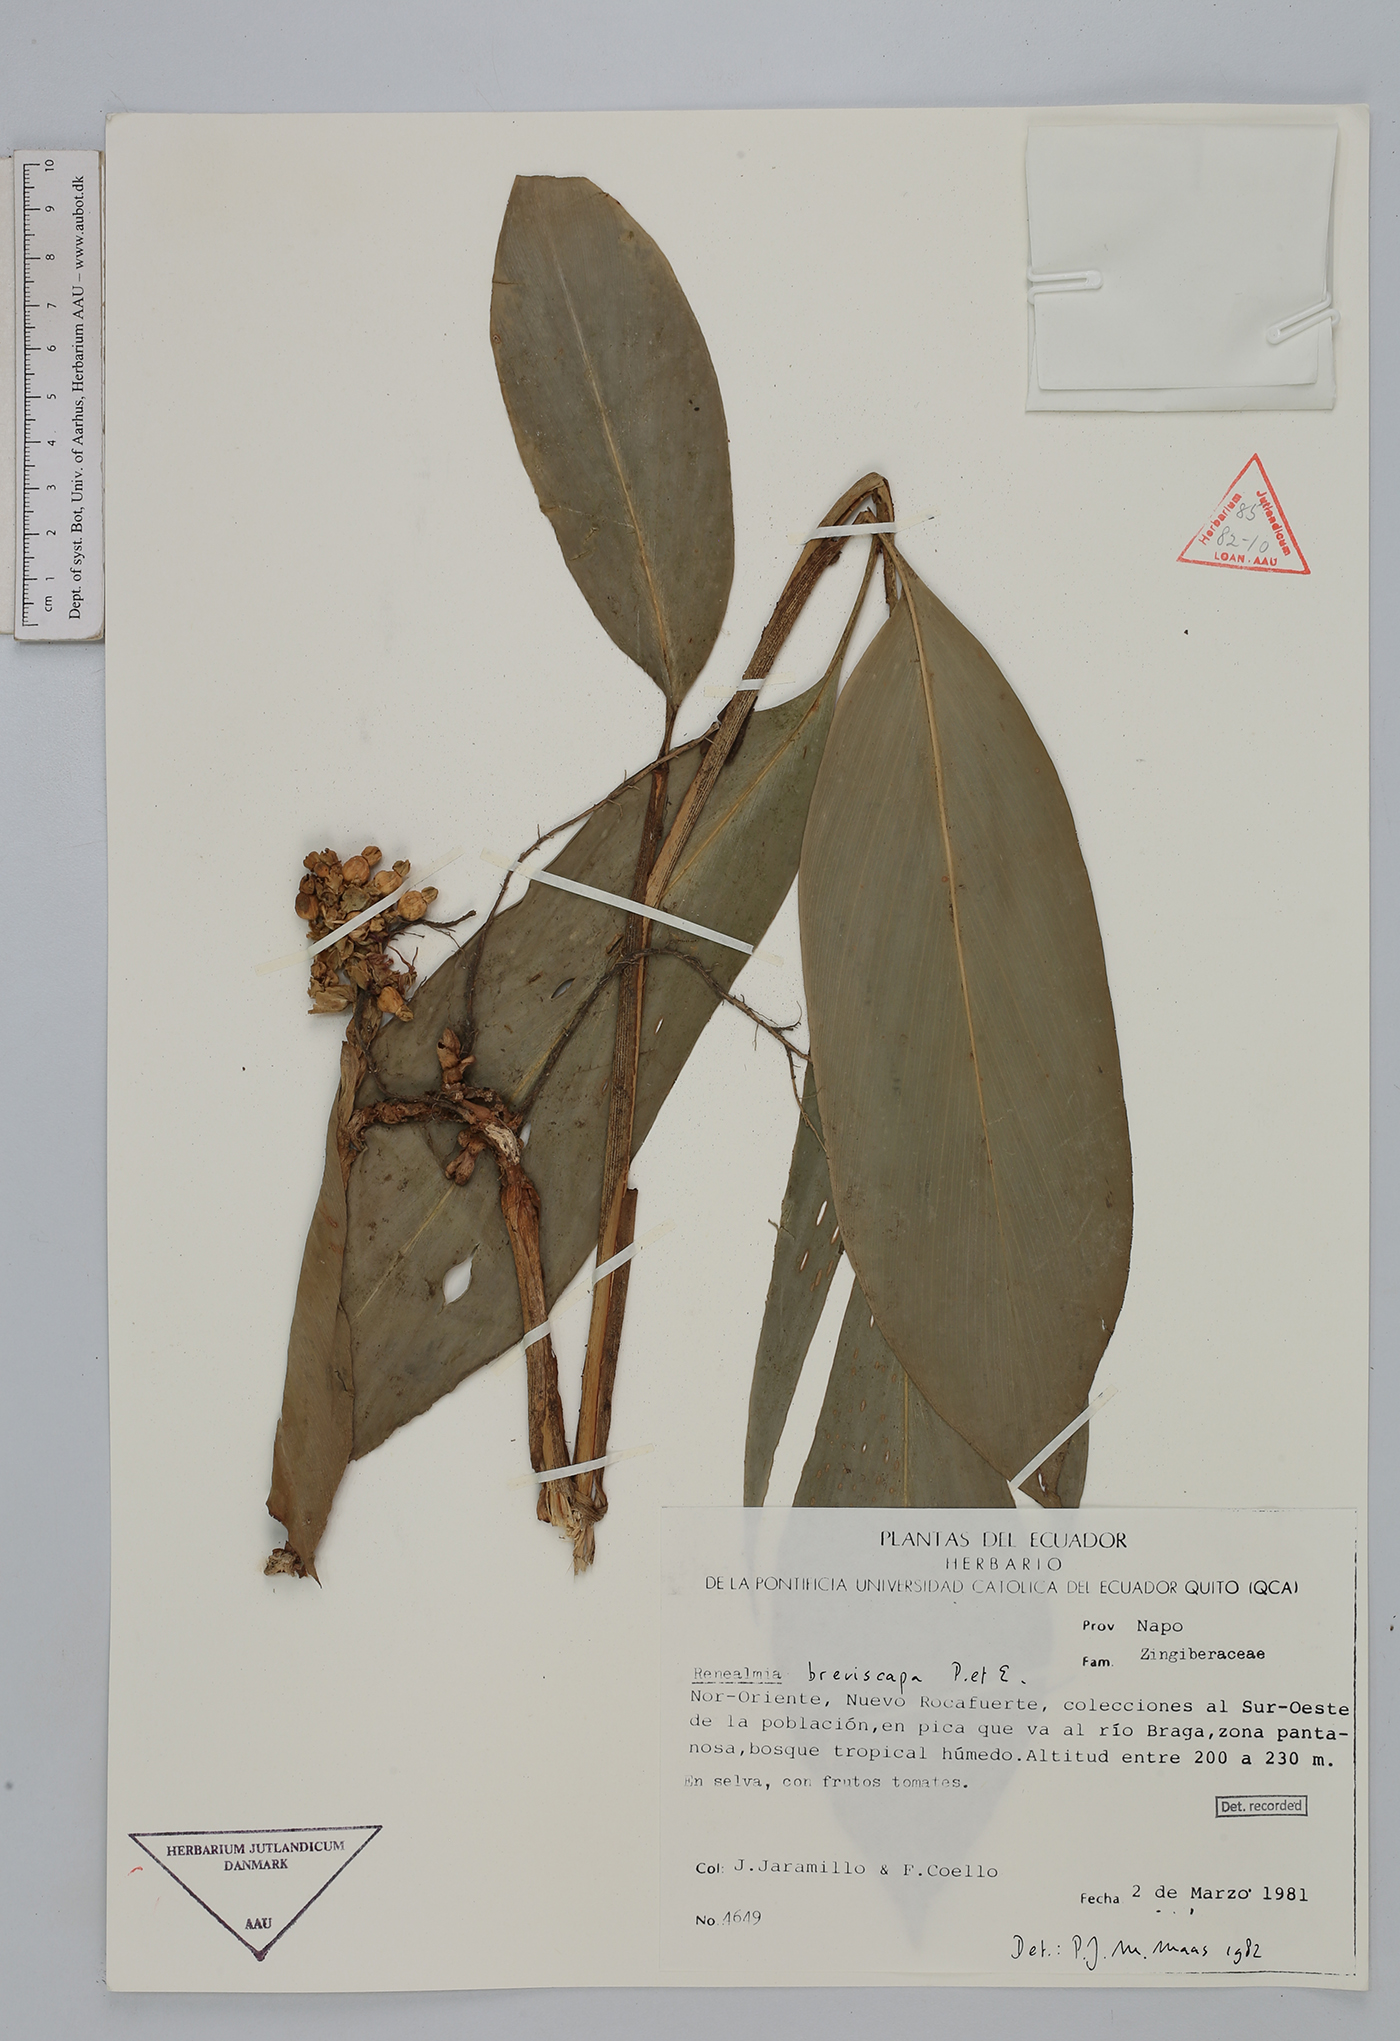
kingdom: Plantae
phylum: Tracheophyta
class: Liliopsida
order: Zingiberales
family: Zingiberaceae
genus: Renealmia
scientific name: Renealmia breviscapa
